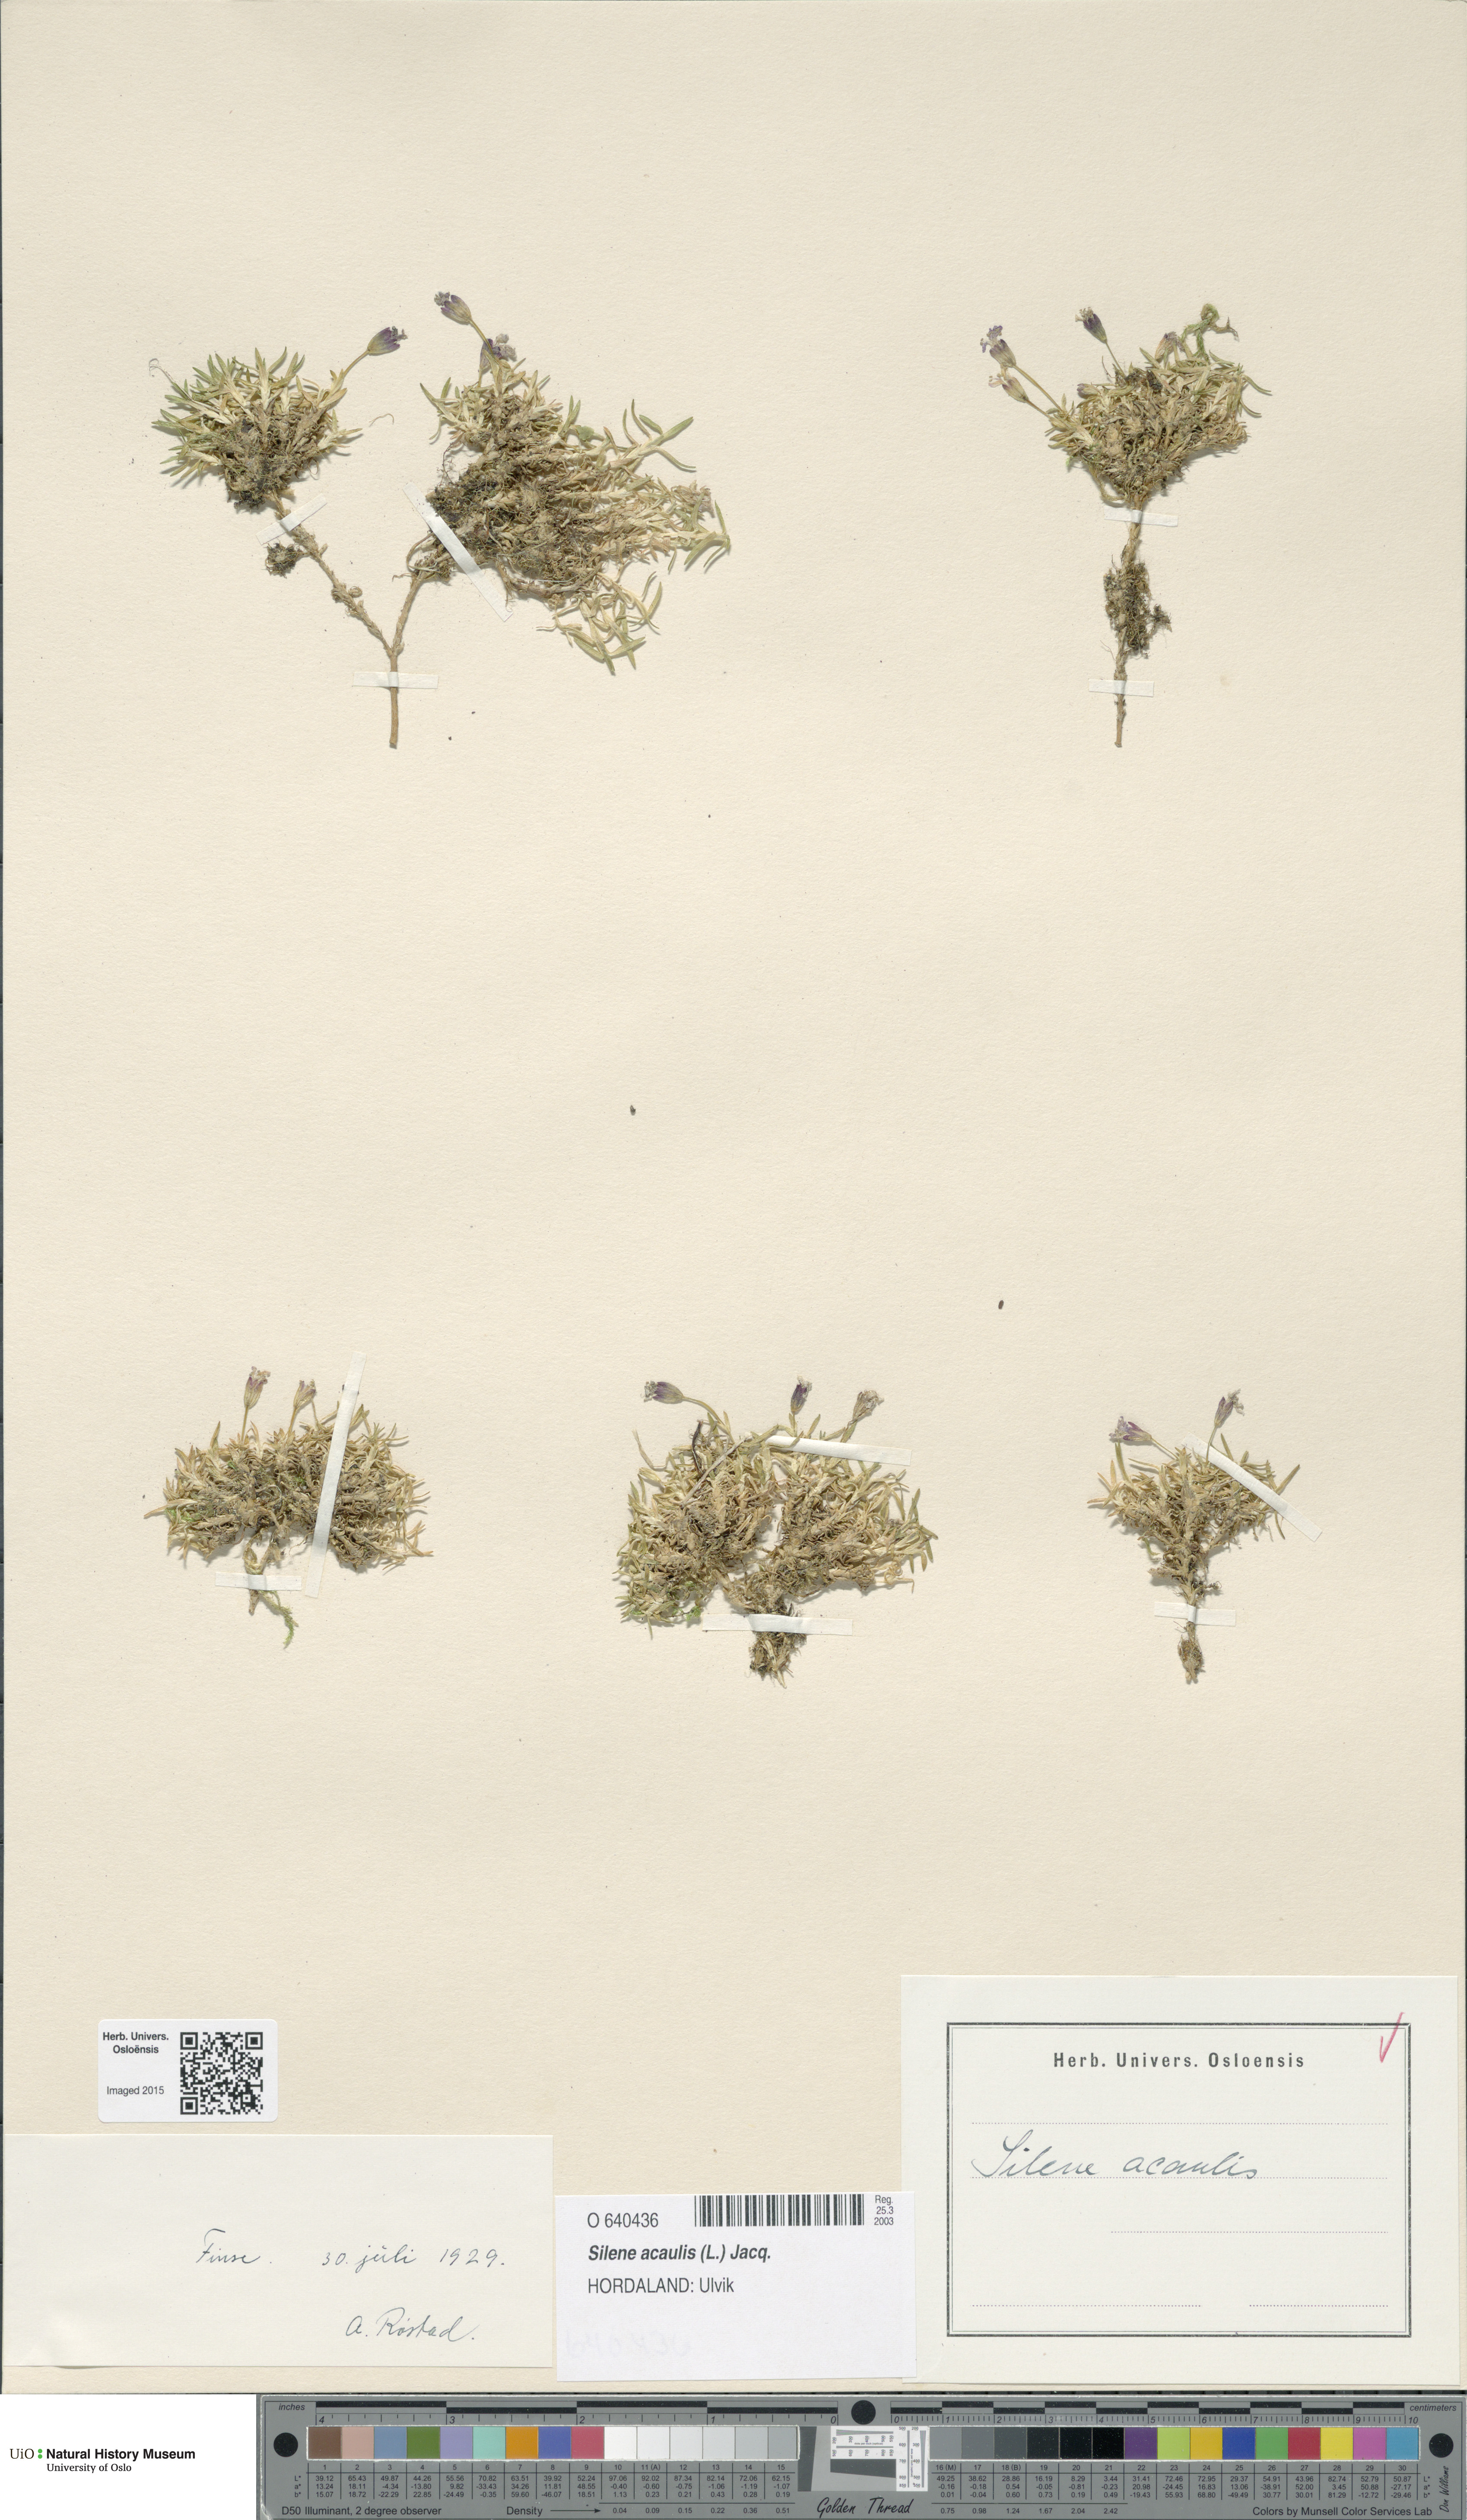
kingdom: Plantae
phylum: Tracheophyta
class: Magnoliopsida
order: Caryophyllales
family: Caryophyllaceae
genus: Silene
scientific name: Silene acaulis
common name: Moss campion
